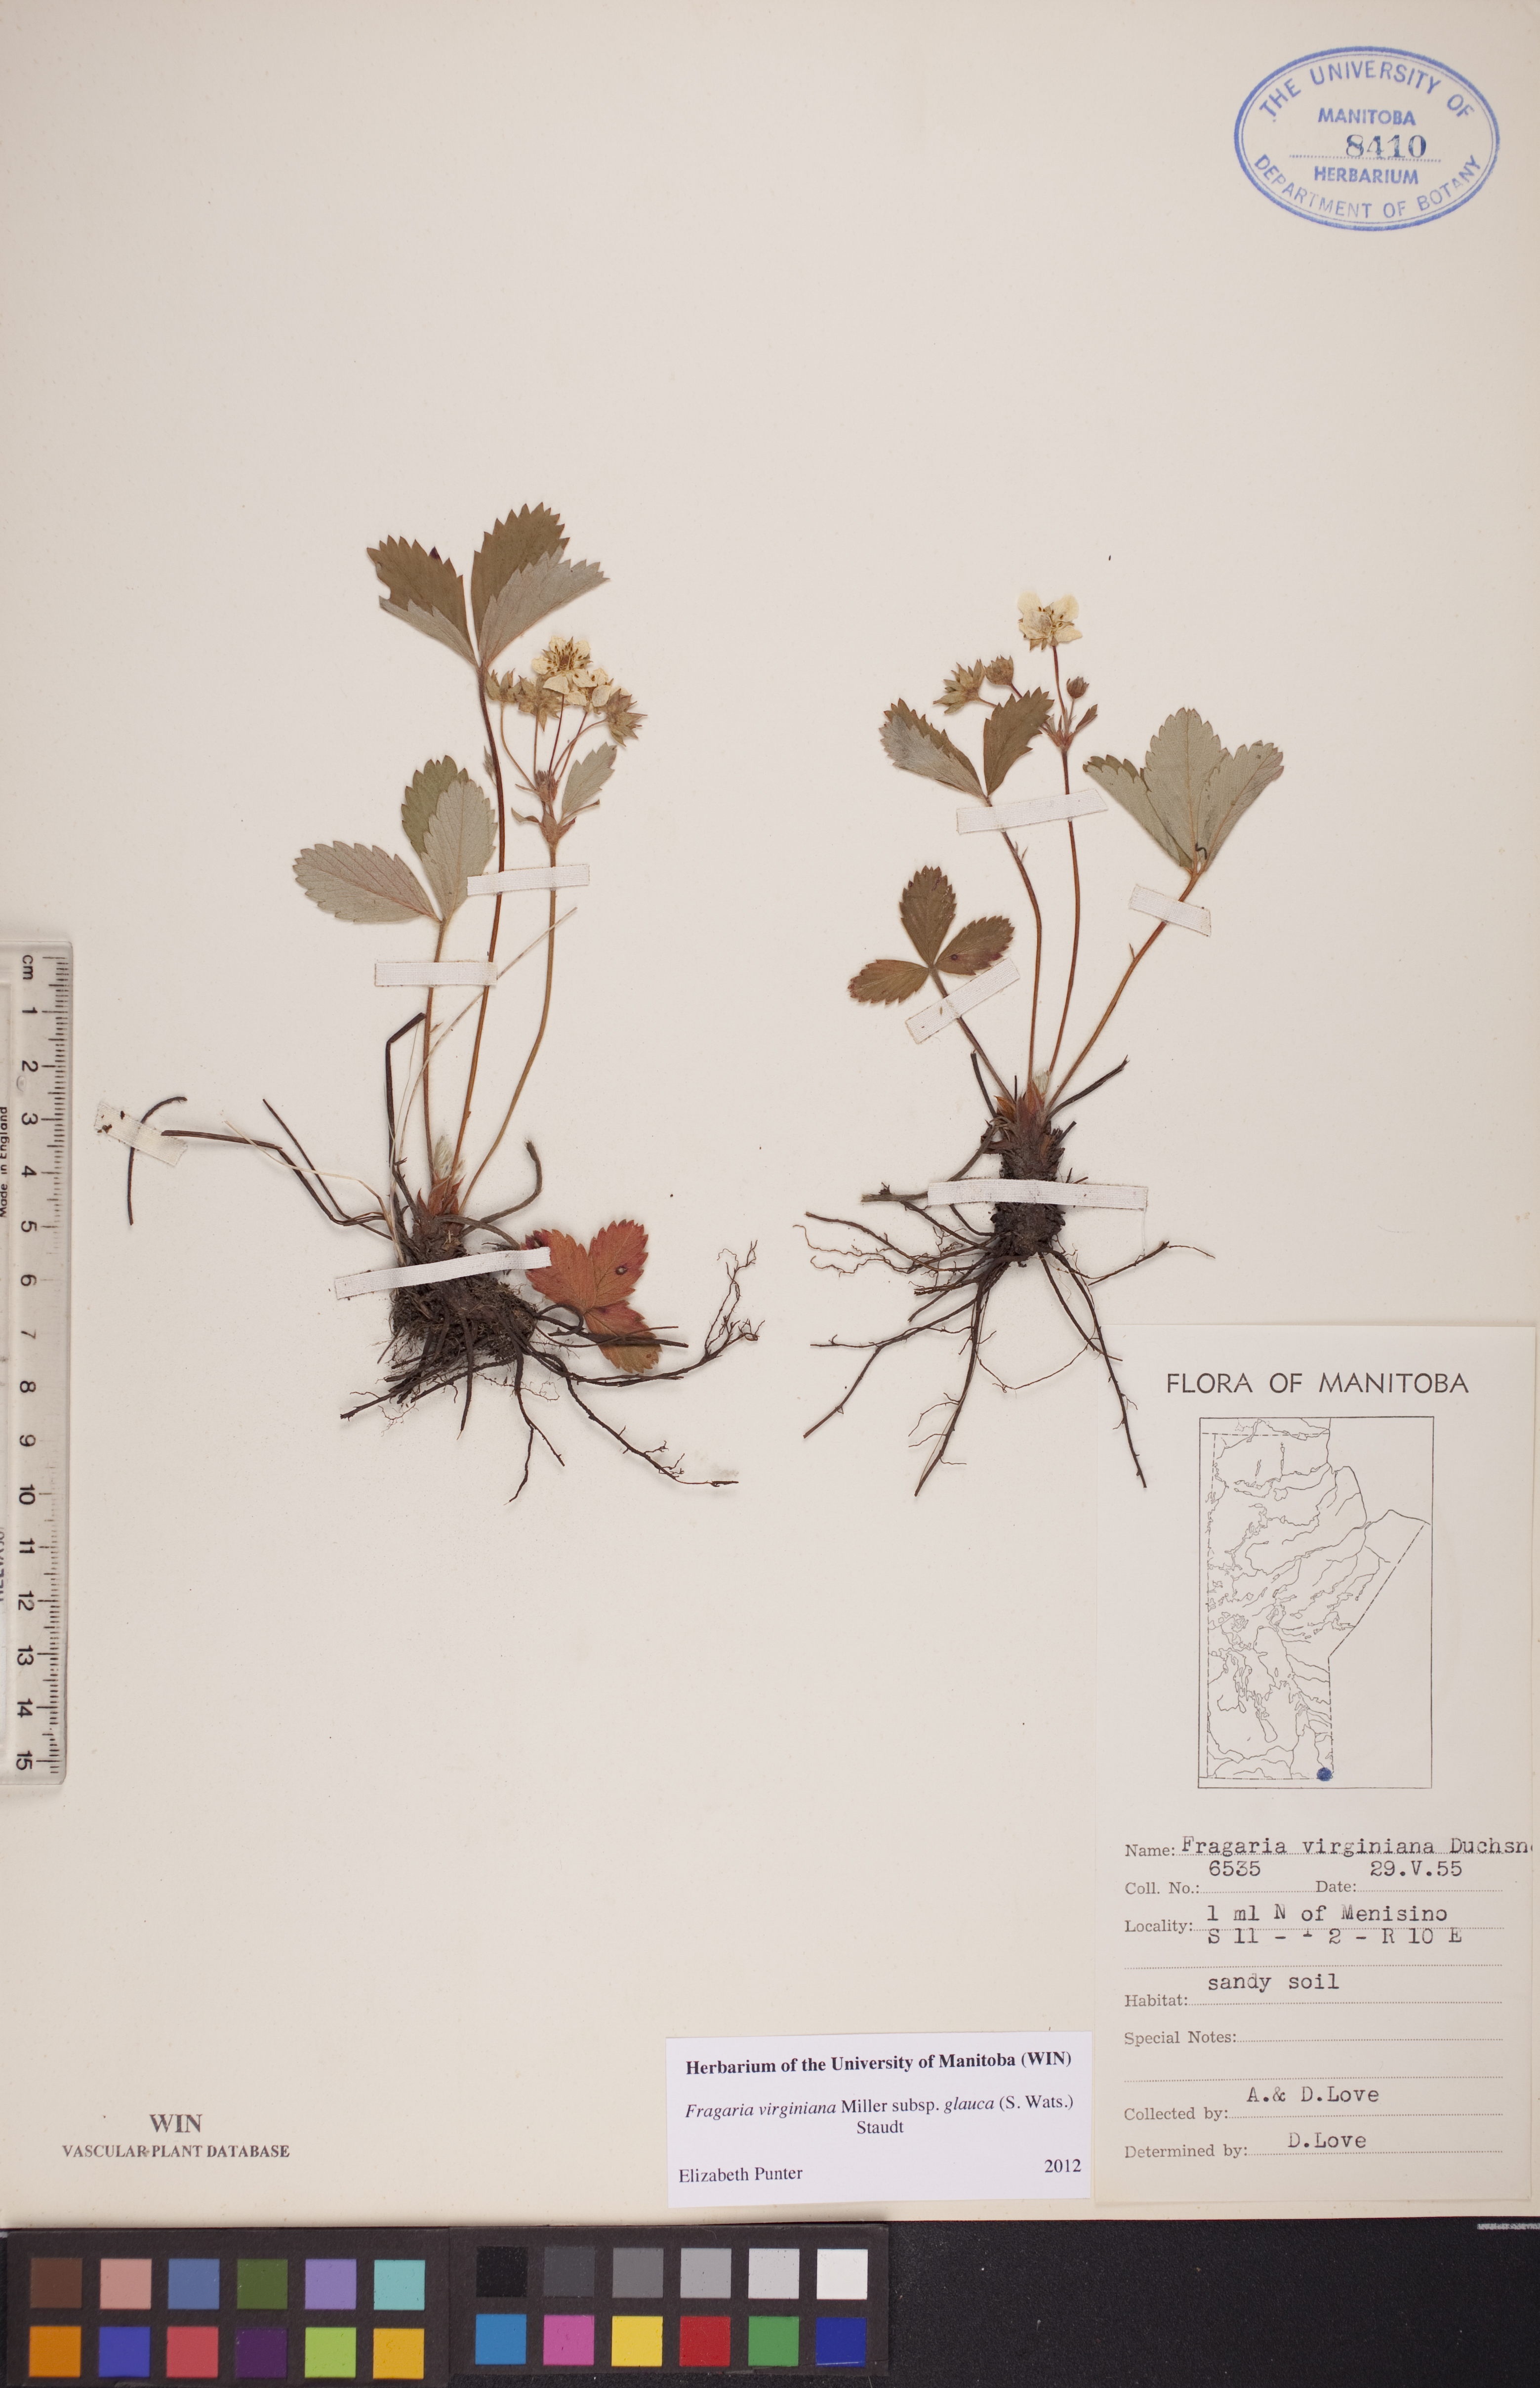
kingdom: Plantae
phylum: Tracheophyta
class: Magnoliopsida
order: Rosales
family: Rosaceae
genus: Fragaria
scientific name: Fragaria virginiana
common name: Thickleaved wild strawberry
